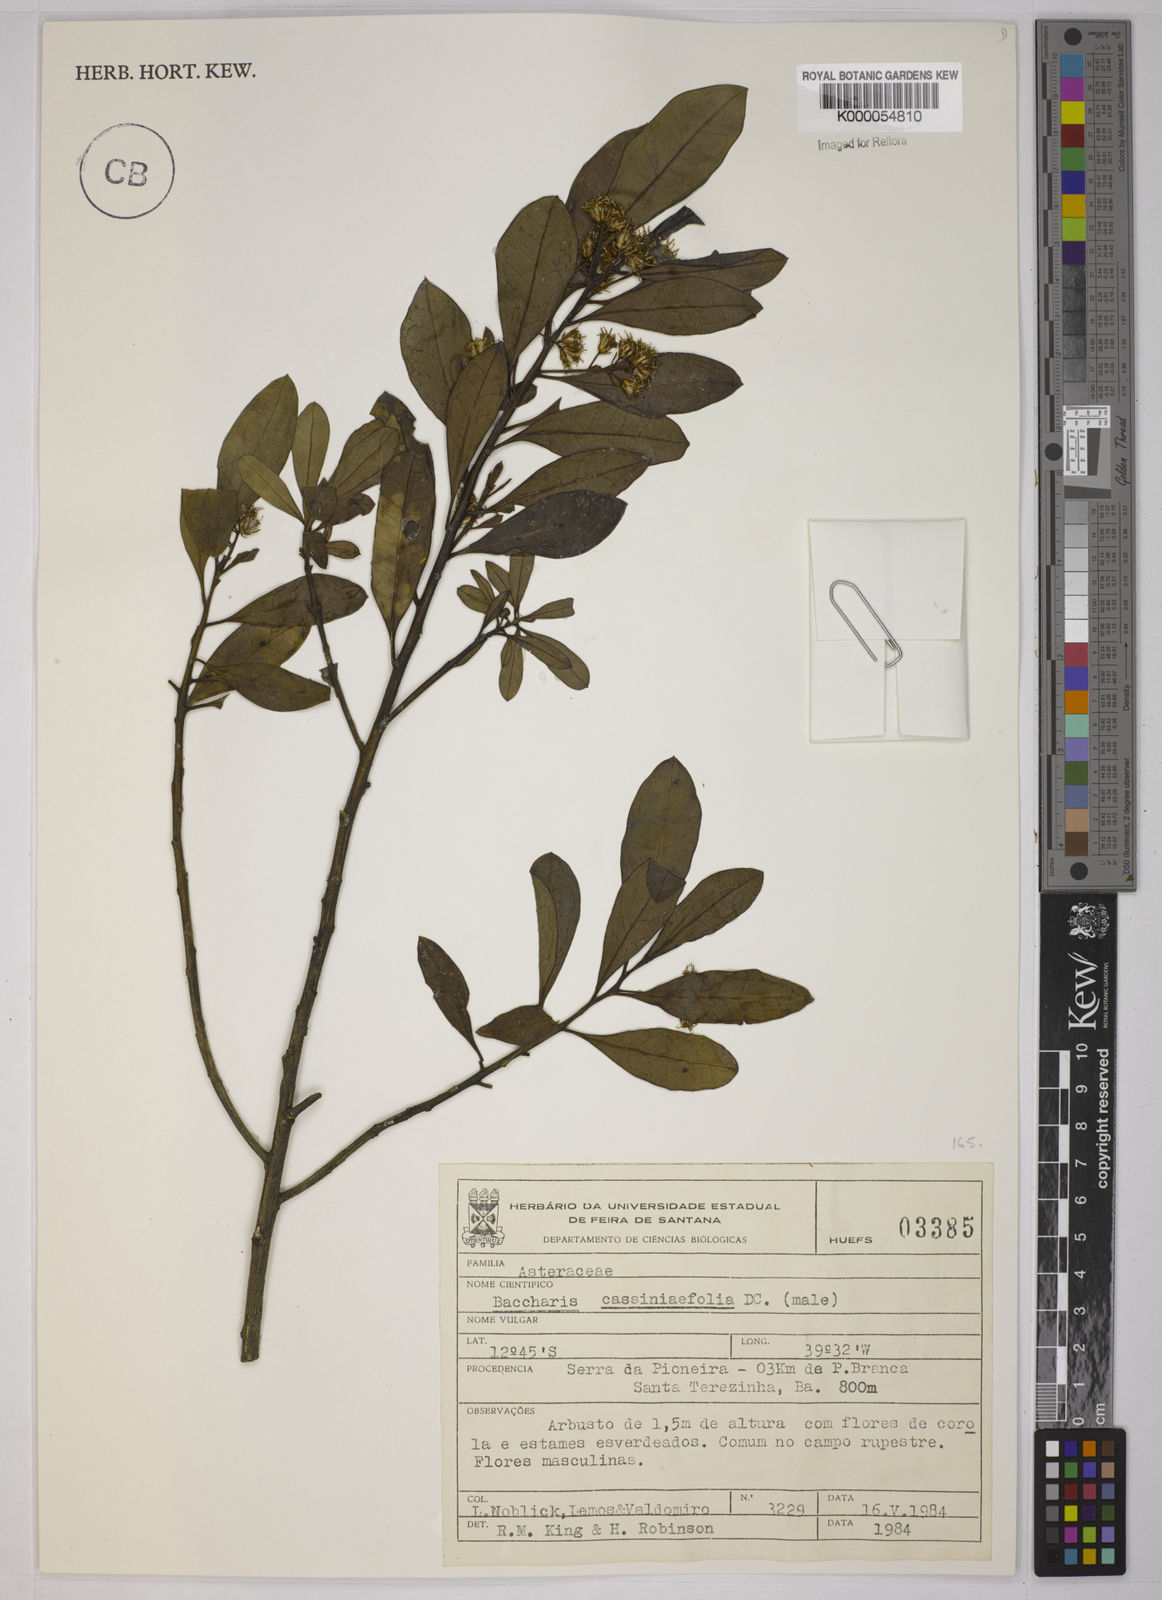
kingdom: Plantae
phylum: Tracheophyta
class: Magnoliopsida
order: Asterales
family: Asteraceae
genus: Baccharis
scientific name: Baccharis singularis
